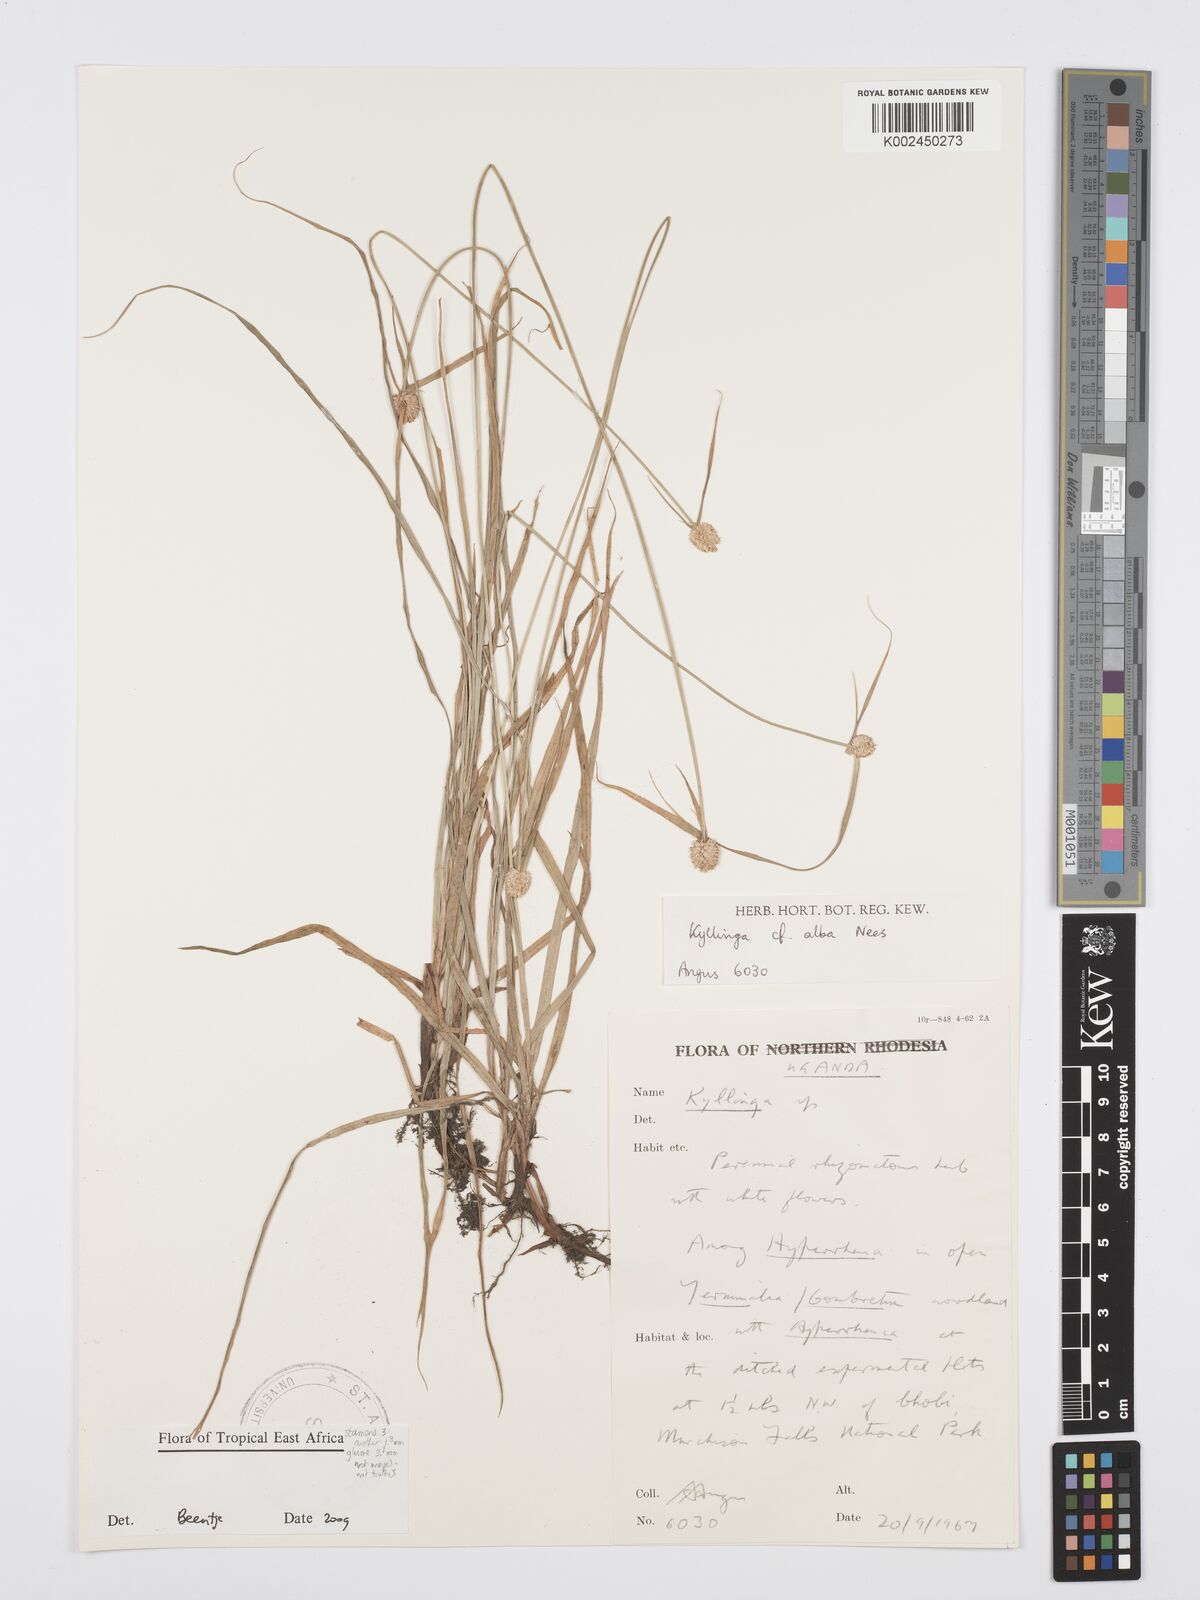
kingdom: Plantae
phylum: Tracheophyta
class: Liliopsida
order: Poales
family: Cyperaceae
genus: Cyperus
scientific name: Cyperus
